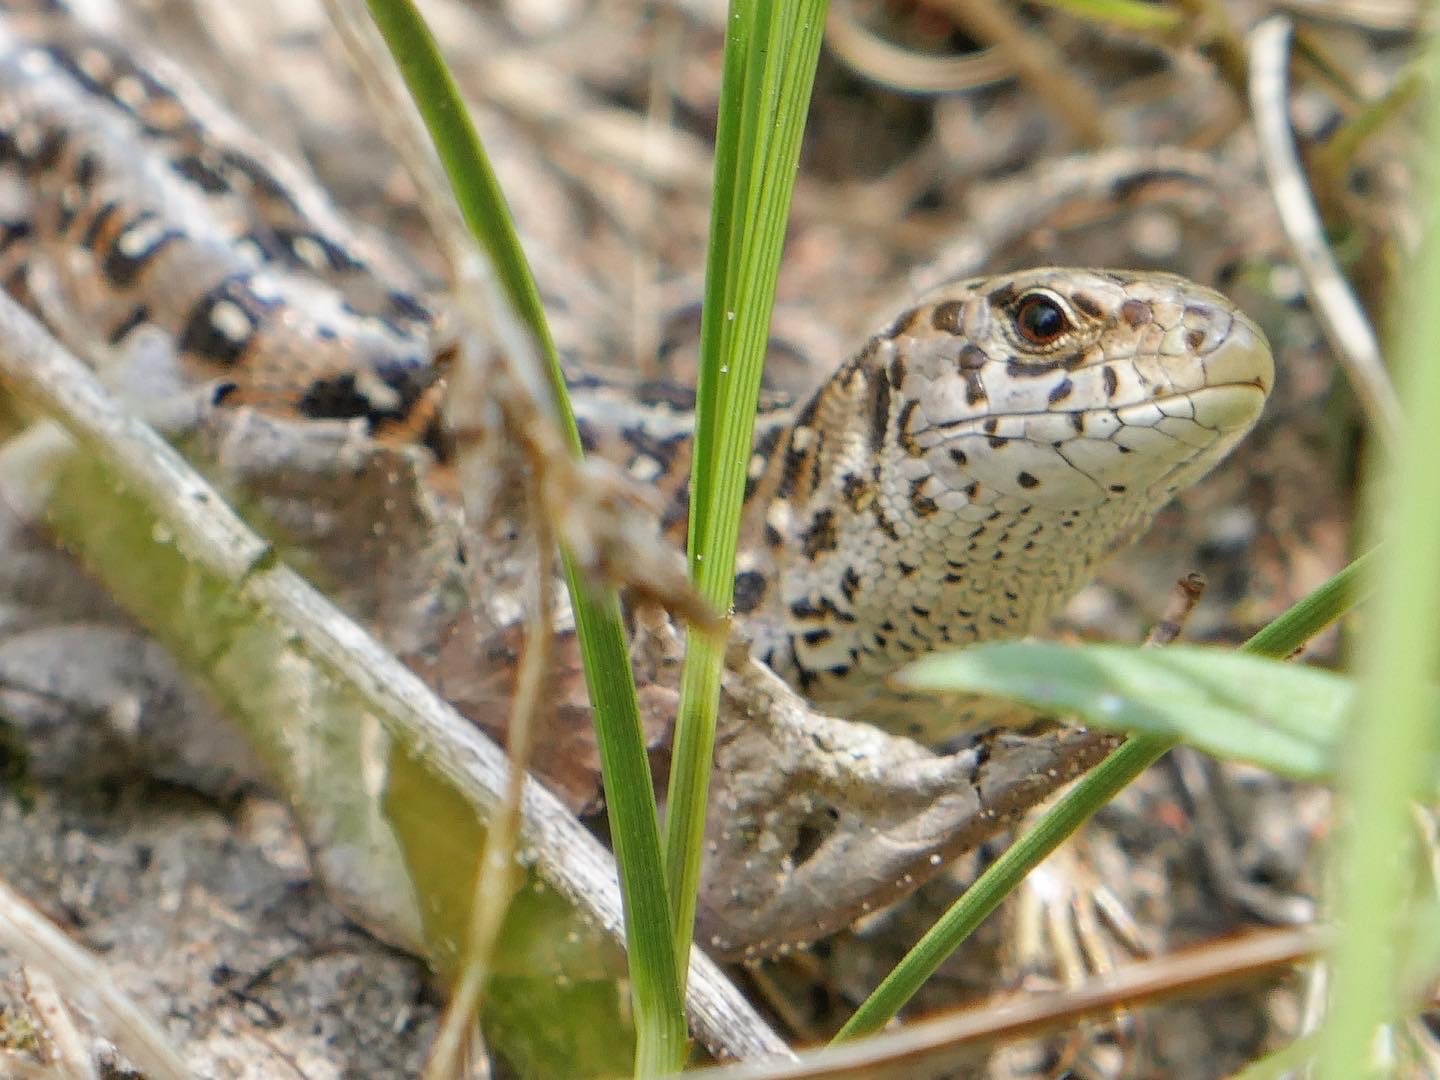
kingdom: Animalia
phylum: Chordata
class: Squamata
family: Lacertidae
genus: Lacerta
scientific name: Lacerta agilis
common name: Markfirben
